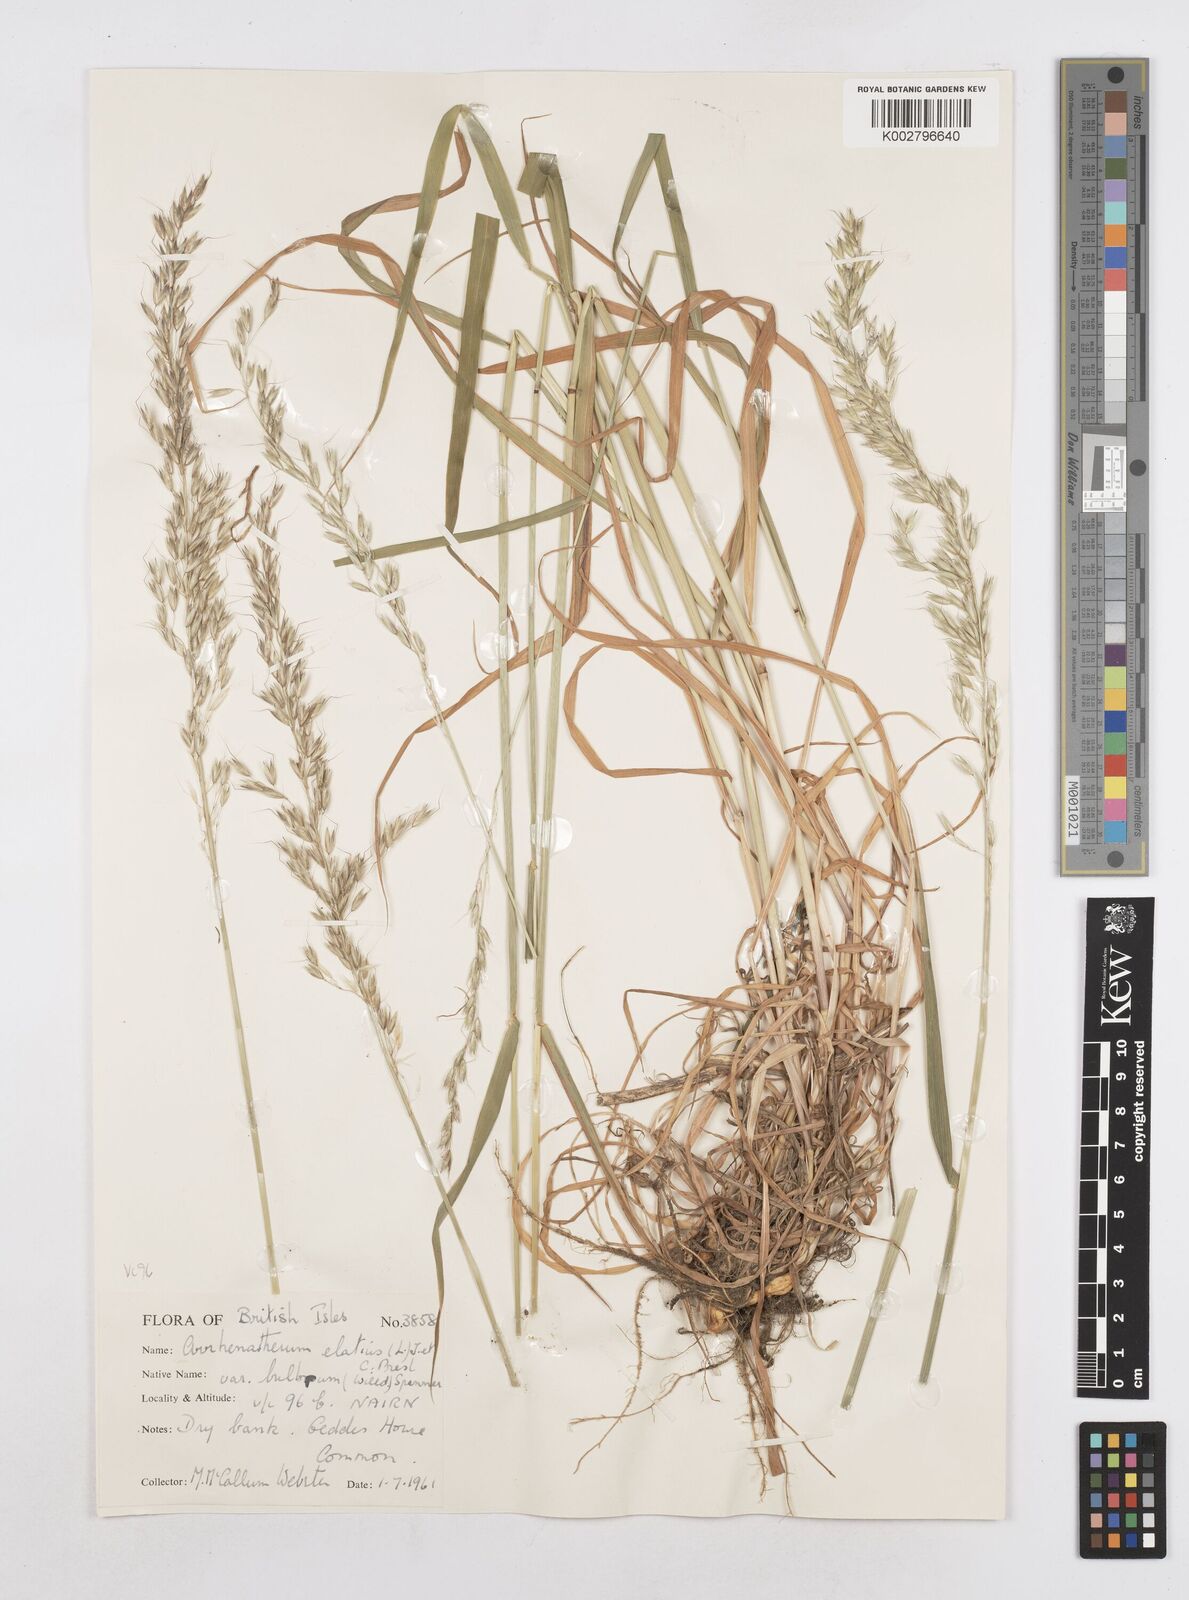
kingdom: Plantae
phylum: Tracheophyta
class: Liliopsida
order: Poales
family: Poaceae
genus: Arrhenatherum
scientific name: Arrhenatherum elatius
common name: Tall oatgrass
